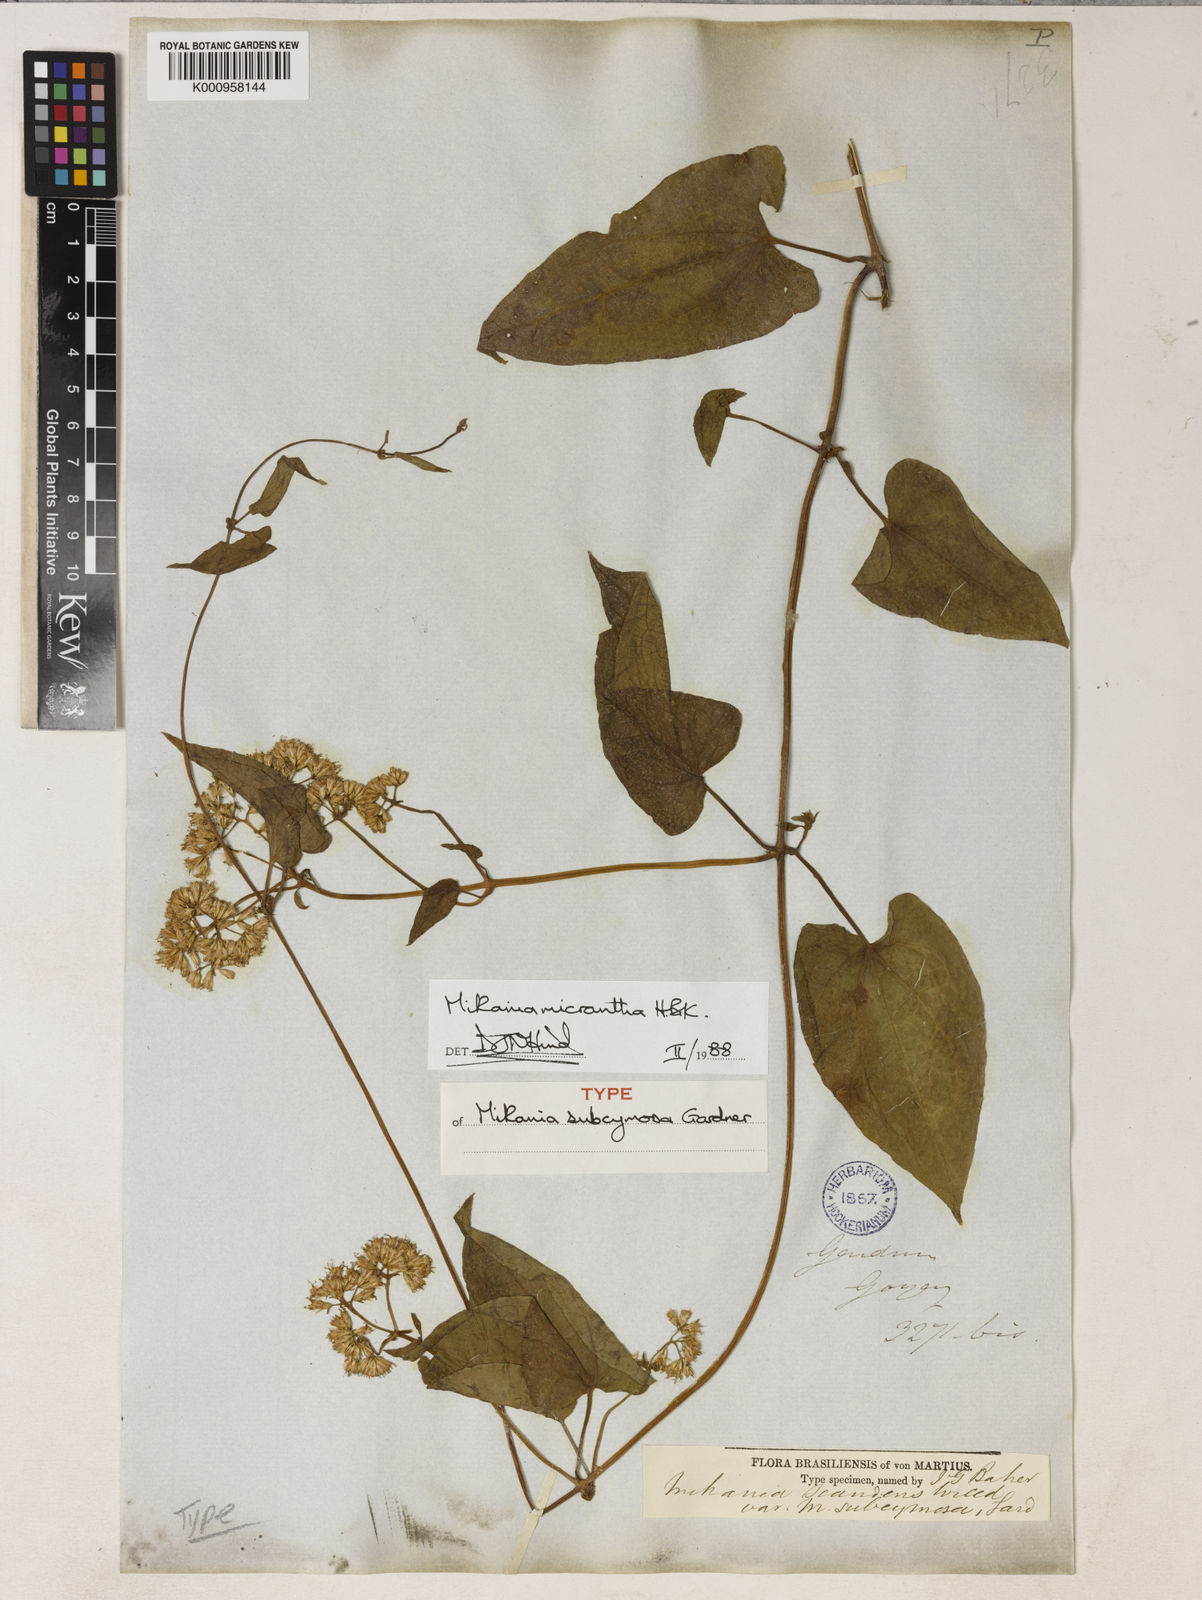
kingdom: Plantae
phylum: Tracheophyta
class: Magnoliopsida
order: Asterales
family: Asteraceae
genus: Mikania
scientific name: Mikania micrantha
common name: Mile-a-minute
